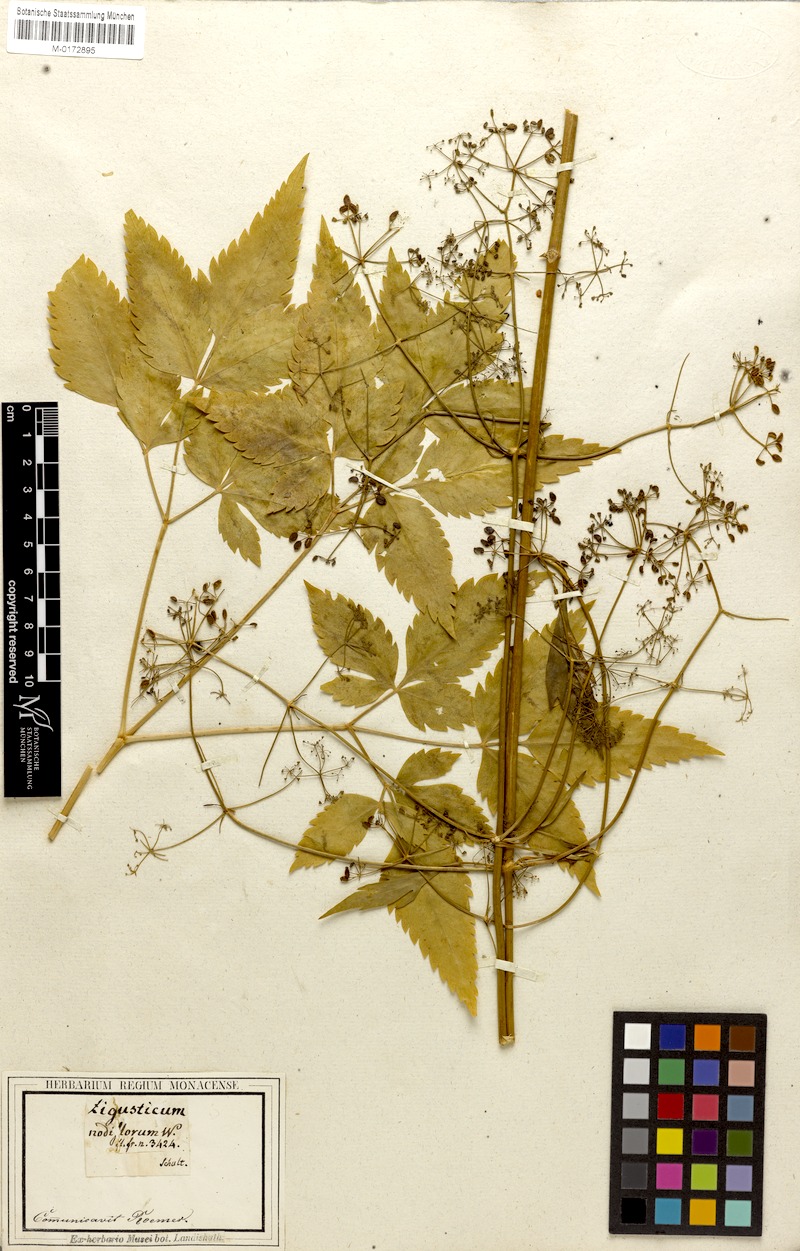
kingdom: Plantae
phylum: Tracheophyta
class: Magnoliopsida
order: Apiales
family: Apiaceae
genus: Trochiscanthes
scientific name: Trochiscanthes nodiflora
